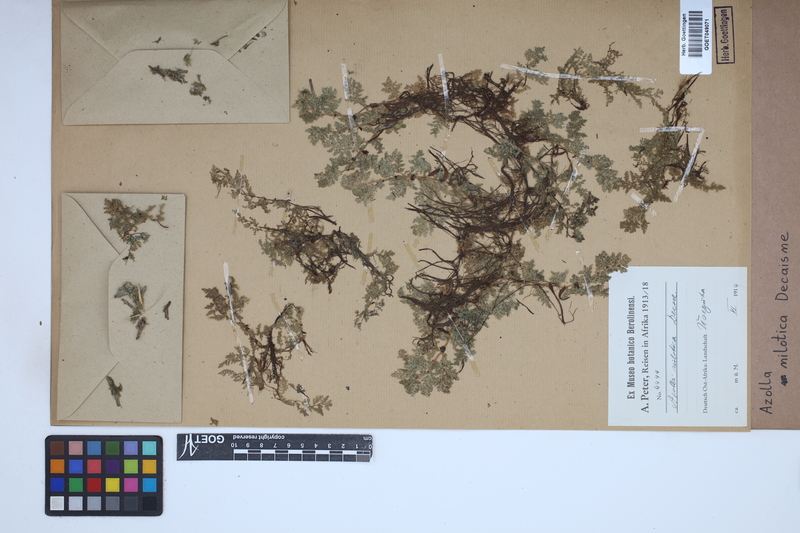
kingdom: Plantae
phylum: Tracheophyta
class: Polypodiopsida
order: Salviniales
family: Salviniaceae
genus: Azolla
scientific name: Azolla nilotica
